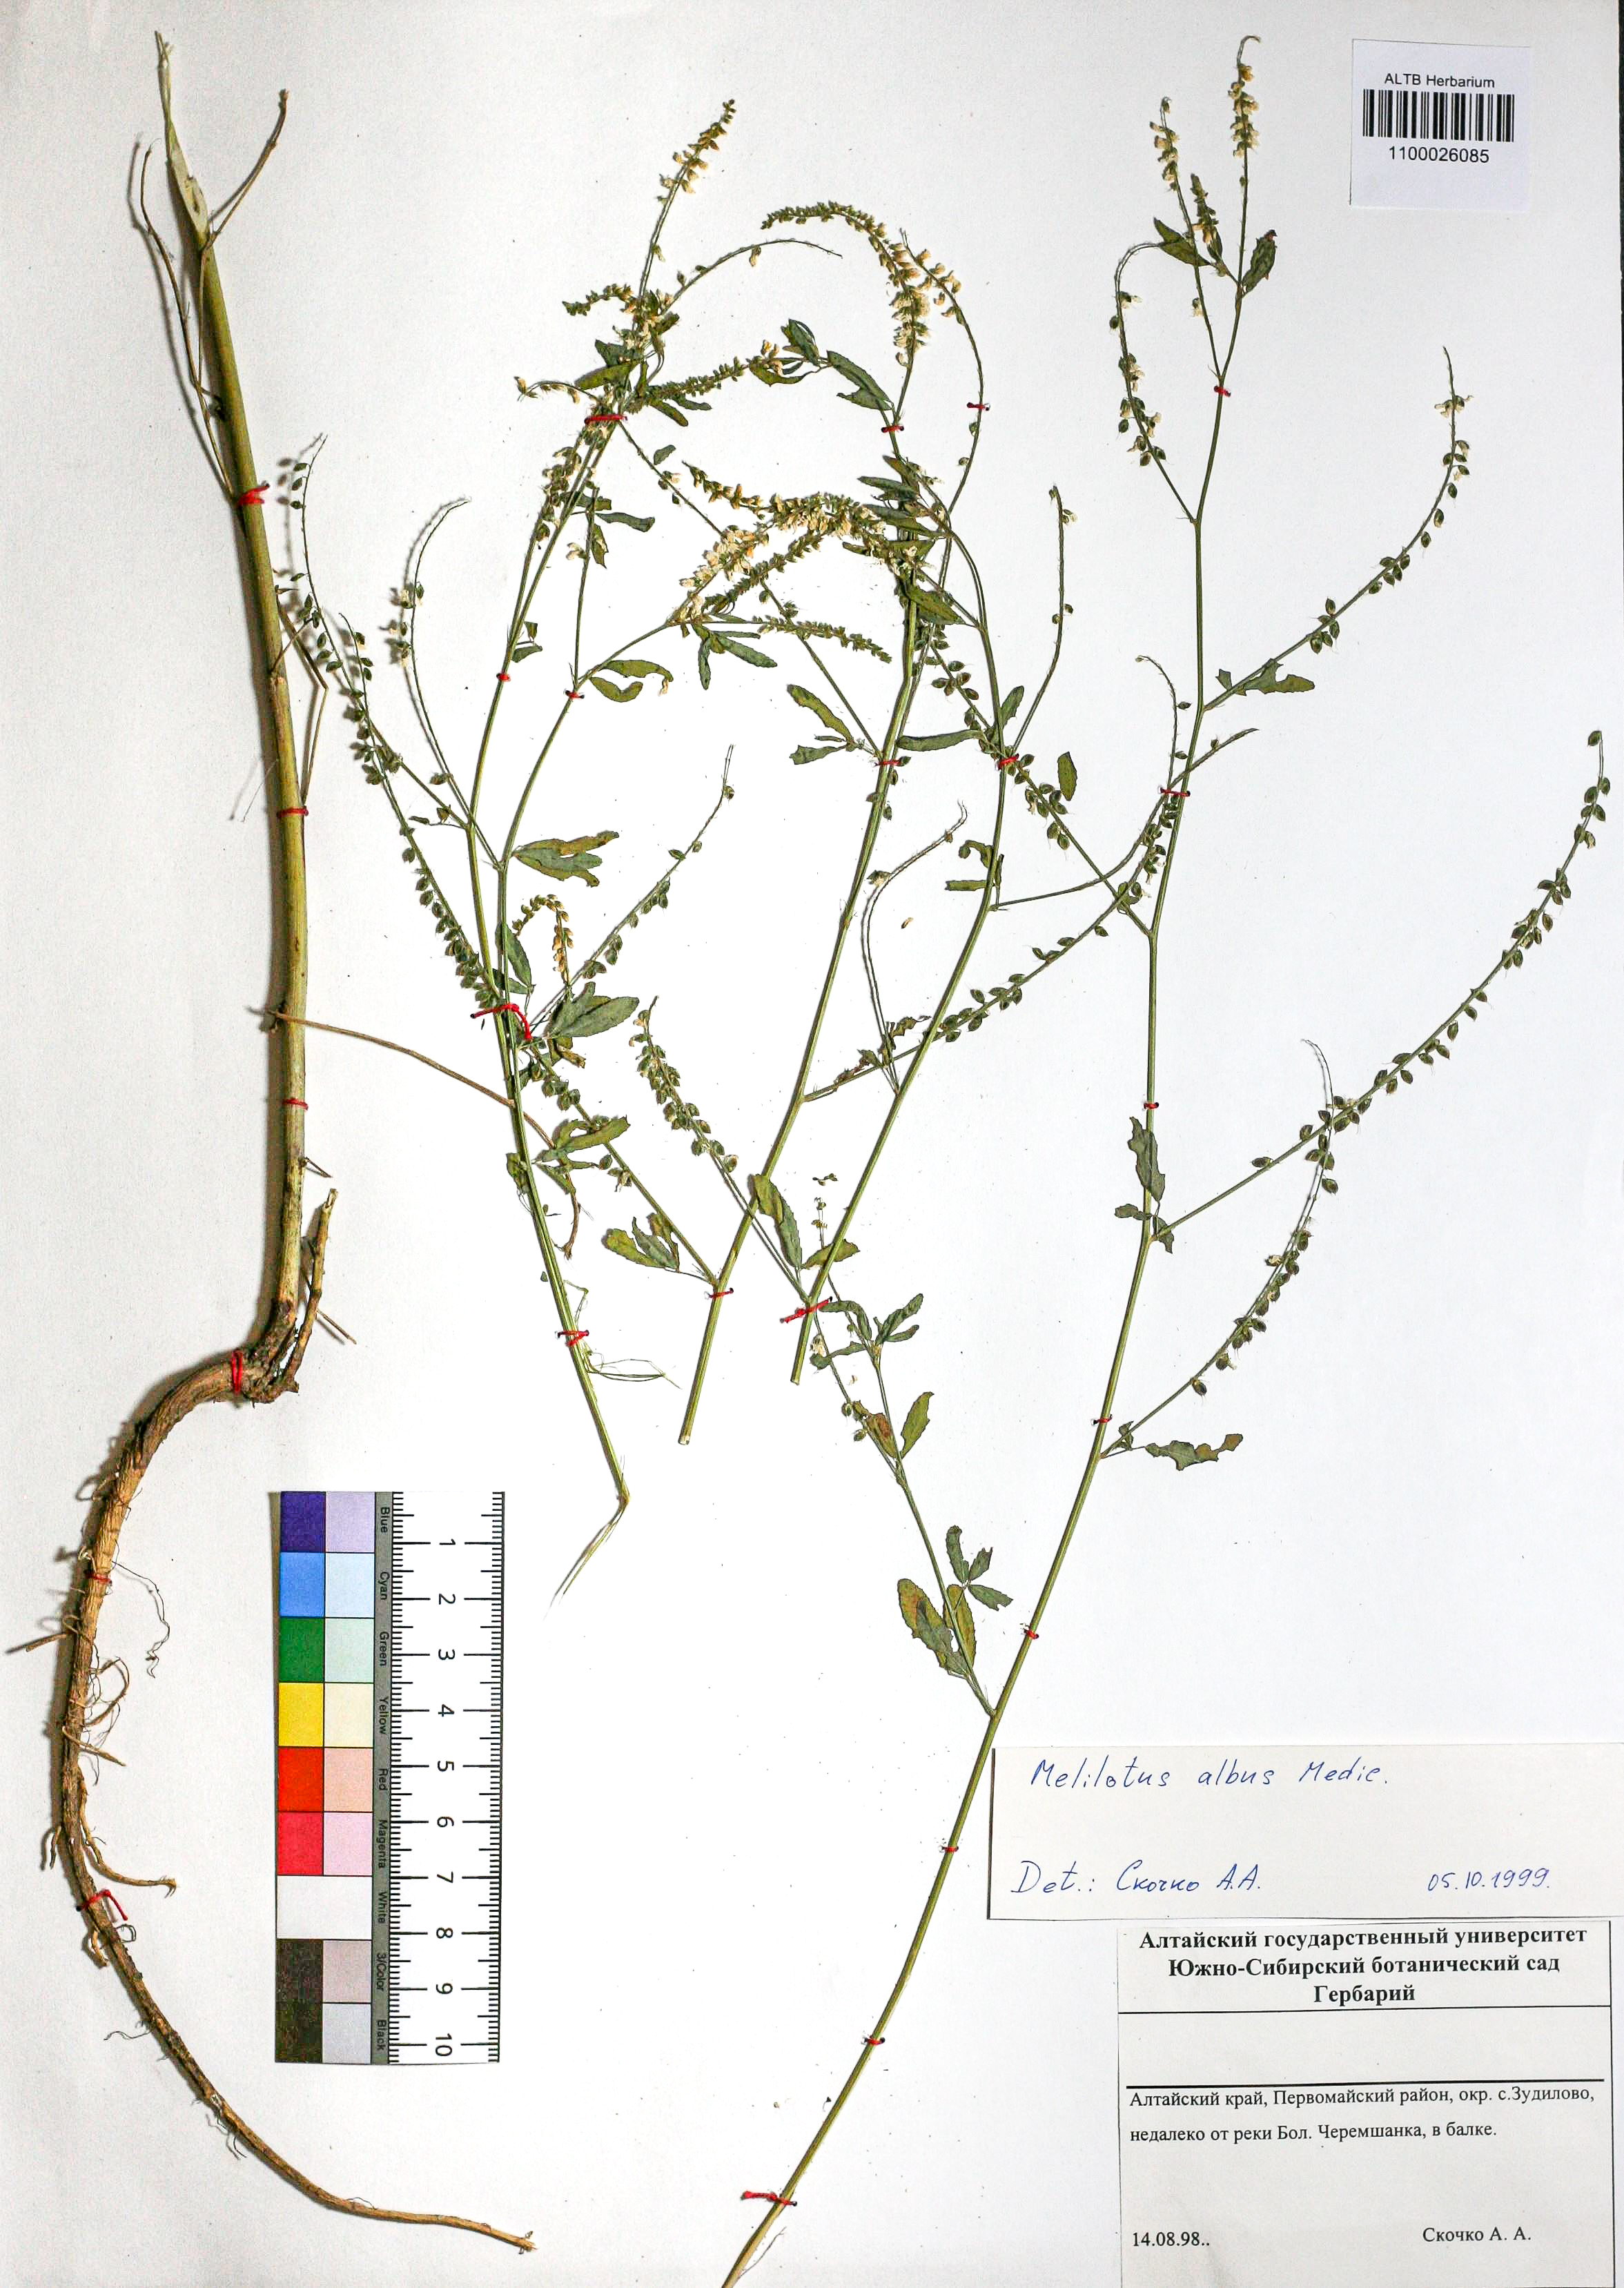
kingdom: Plantae
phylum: Tracheophyta
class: Magnoliopsida
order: Fabales
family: Fabaceae
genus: Melilotus
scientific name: Melilotus albus
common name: White melilot
